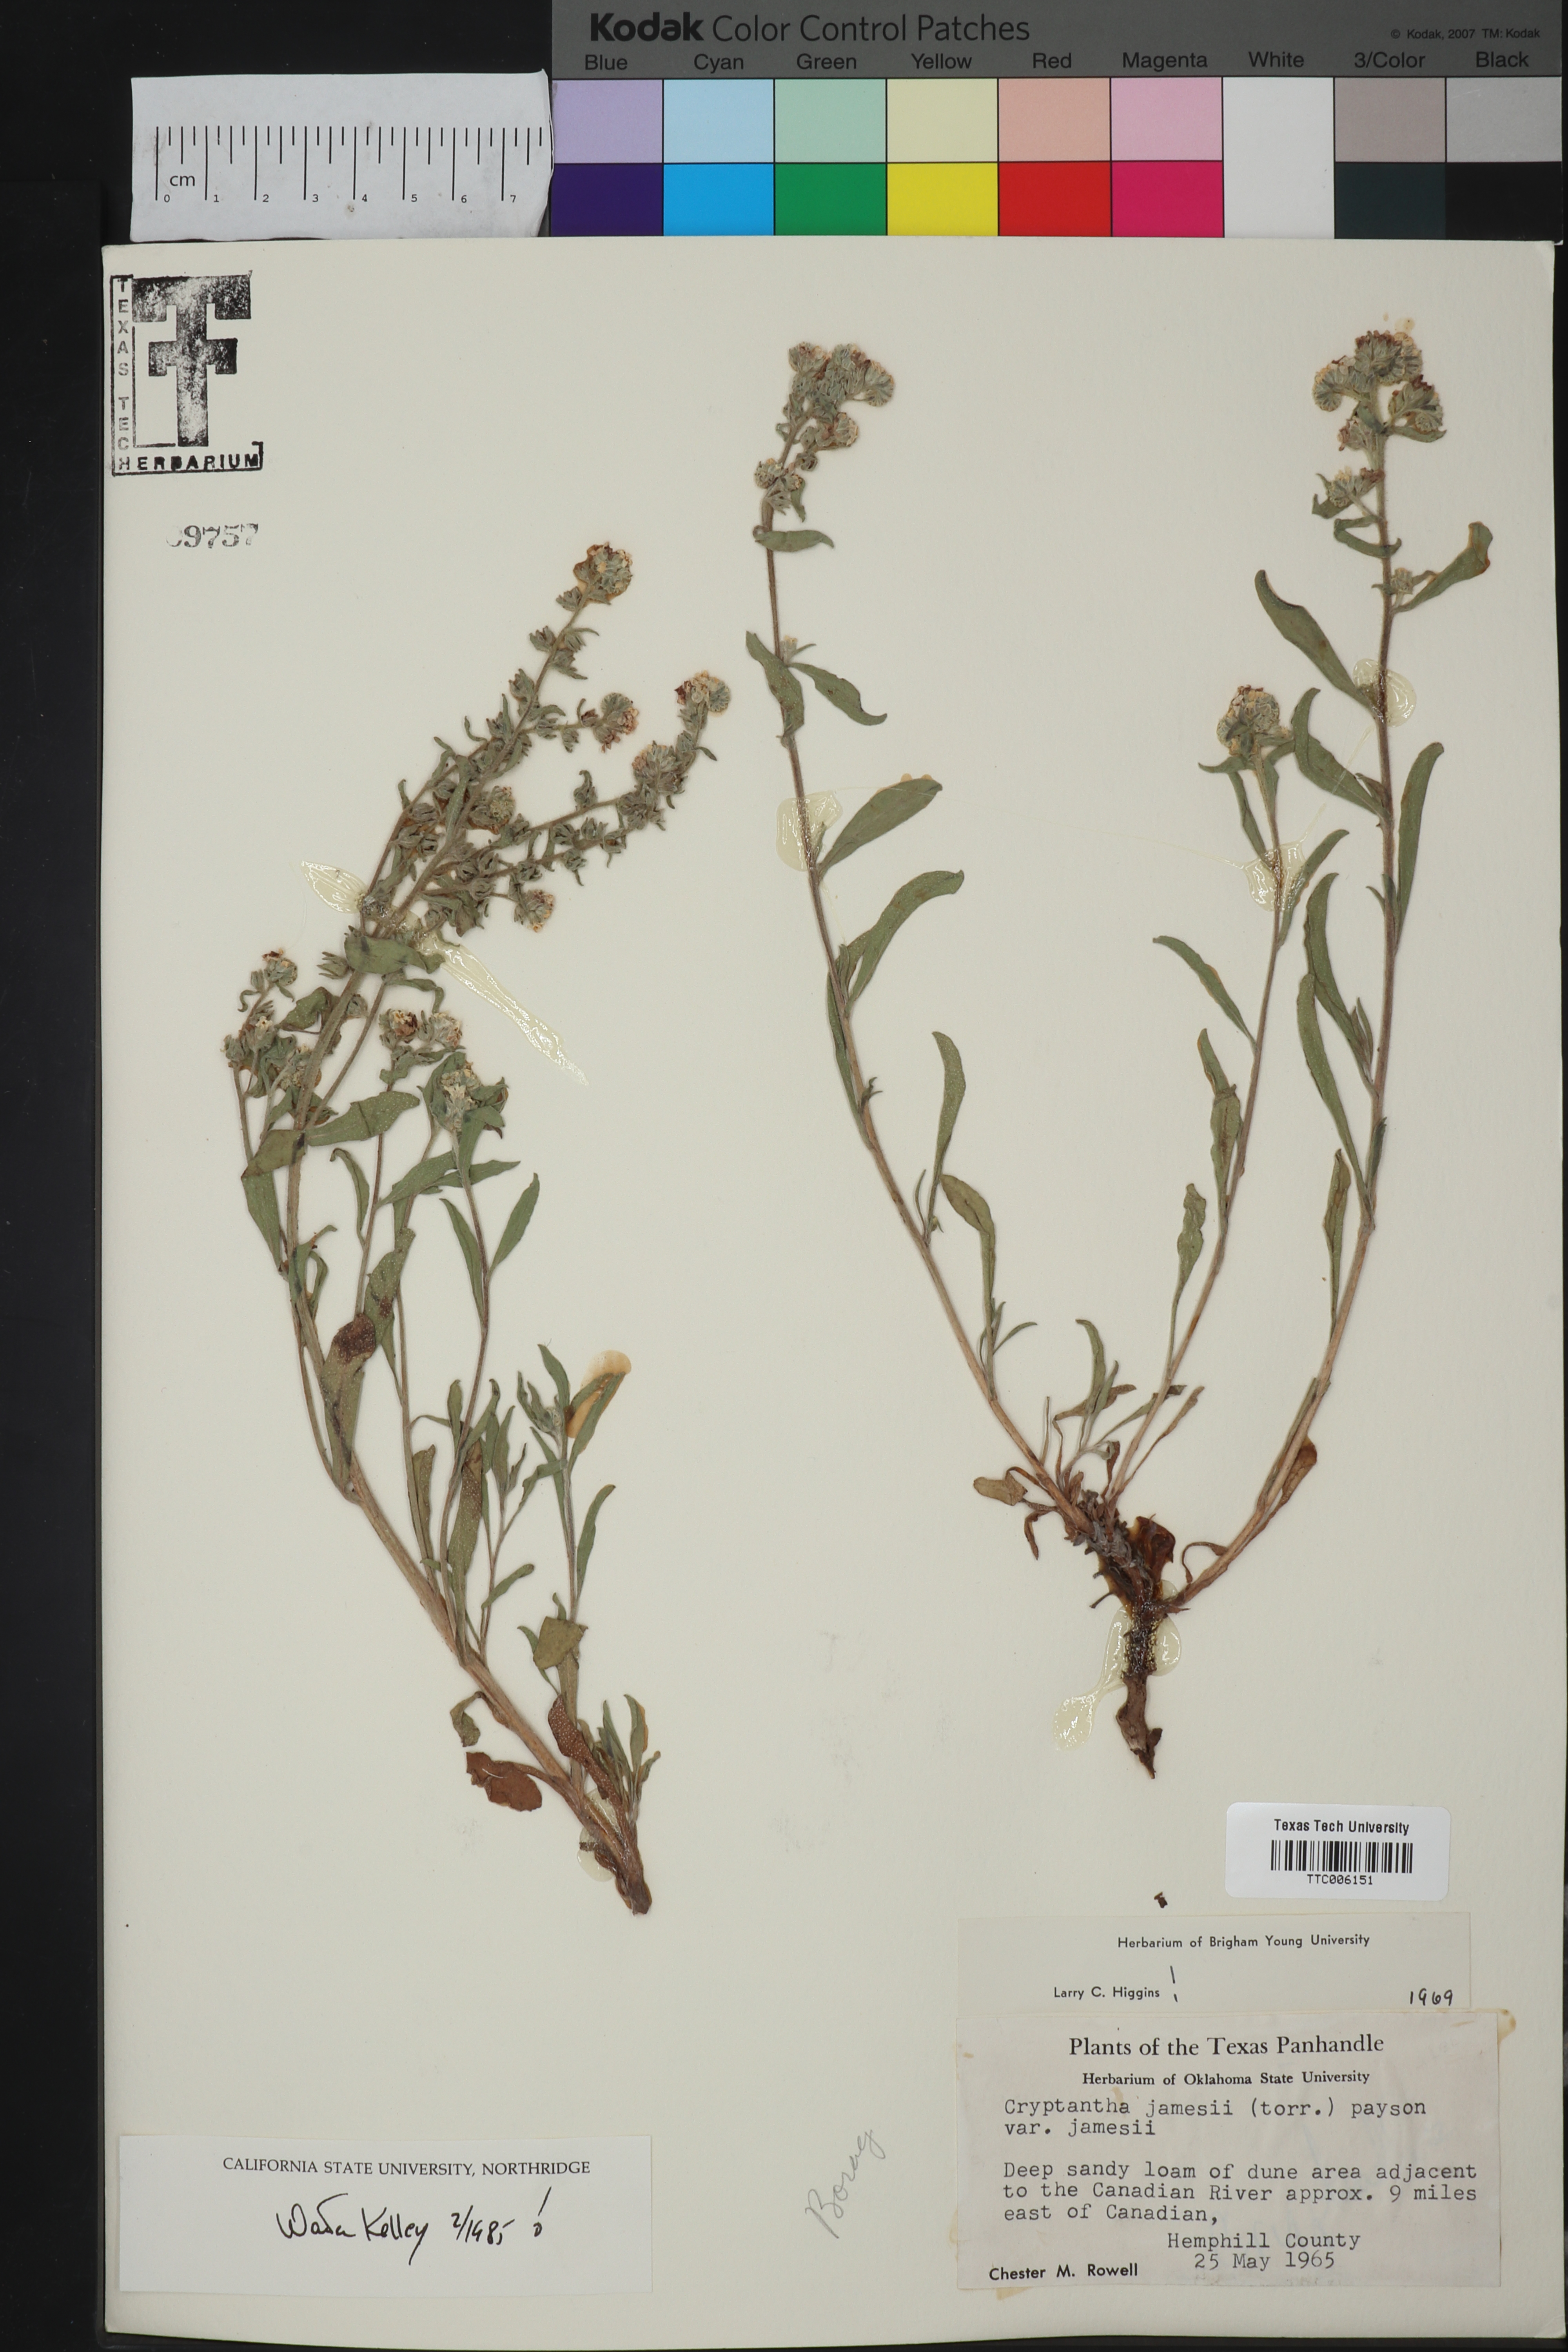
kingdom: Plantae
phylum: Tracheophyta
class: Magnoliopsida
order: Boraginales
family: Boraginaceae
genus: Oreocarya
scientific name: Oreocarya suffruticosa
